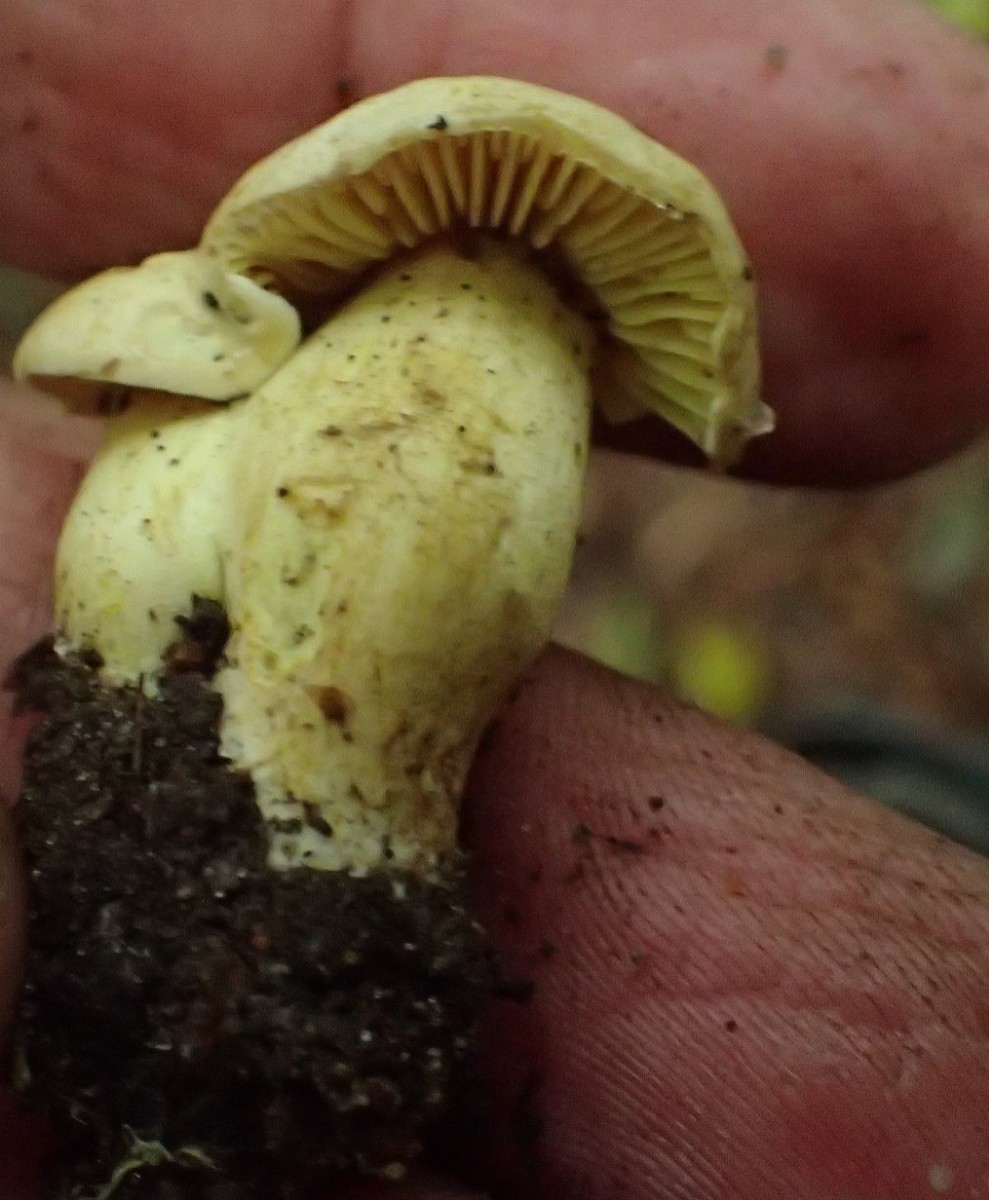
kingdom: Fungi
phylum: Basidiomycota
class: Agaricomycetes
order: Agaricales
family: Tricholomataceae
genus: Tricholoma
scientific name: Tricholoma sulphureum
